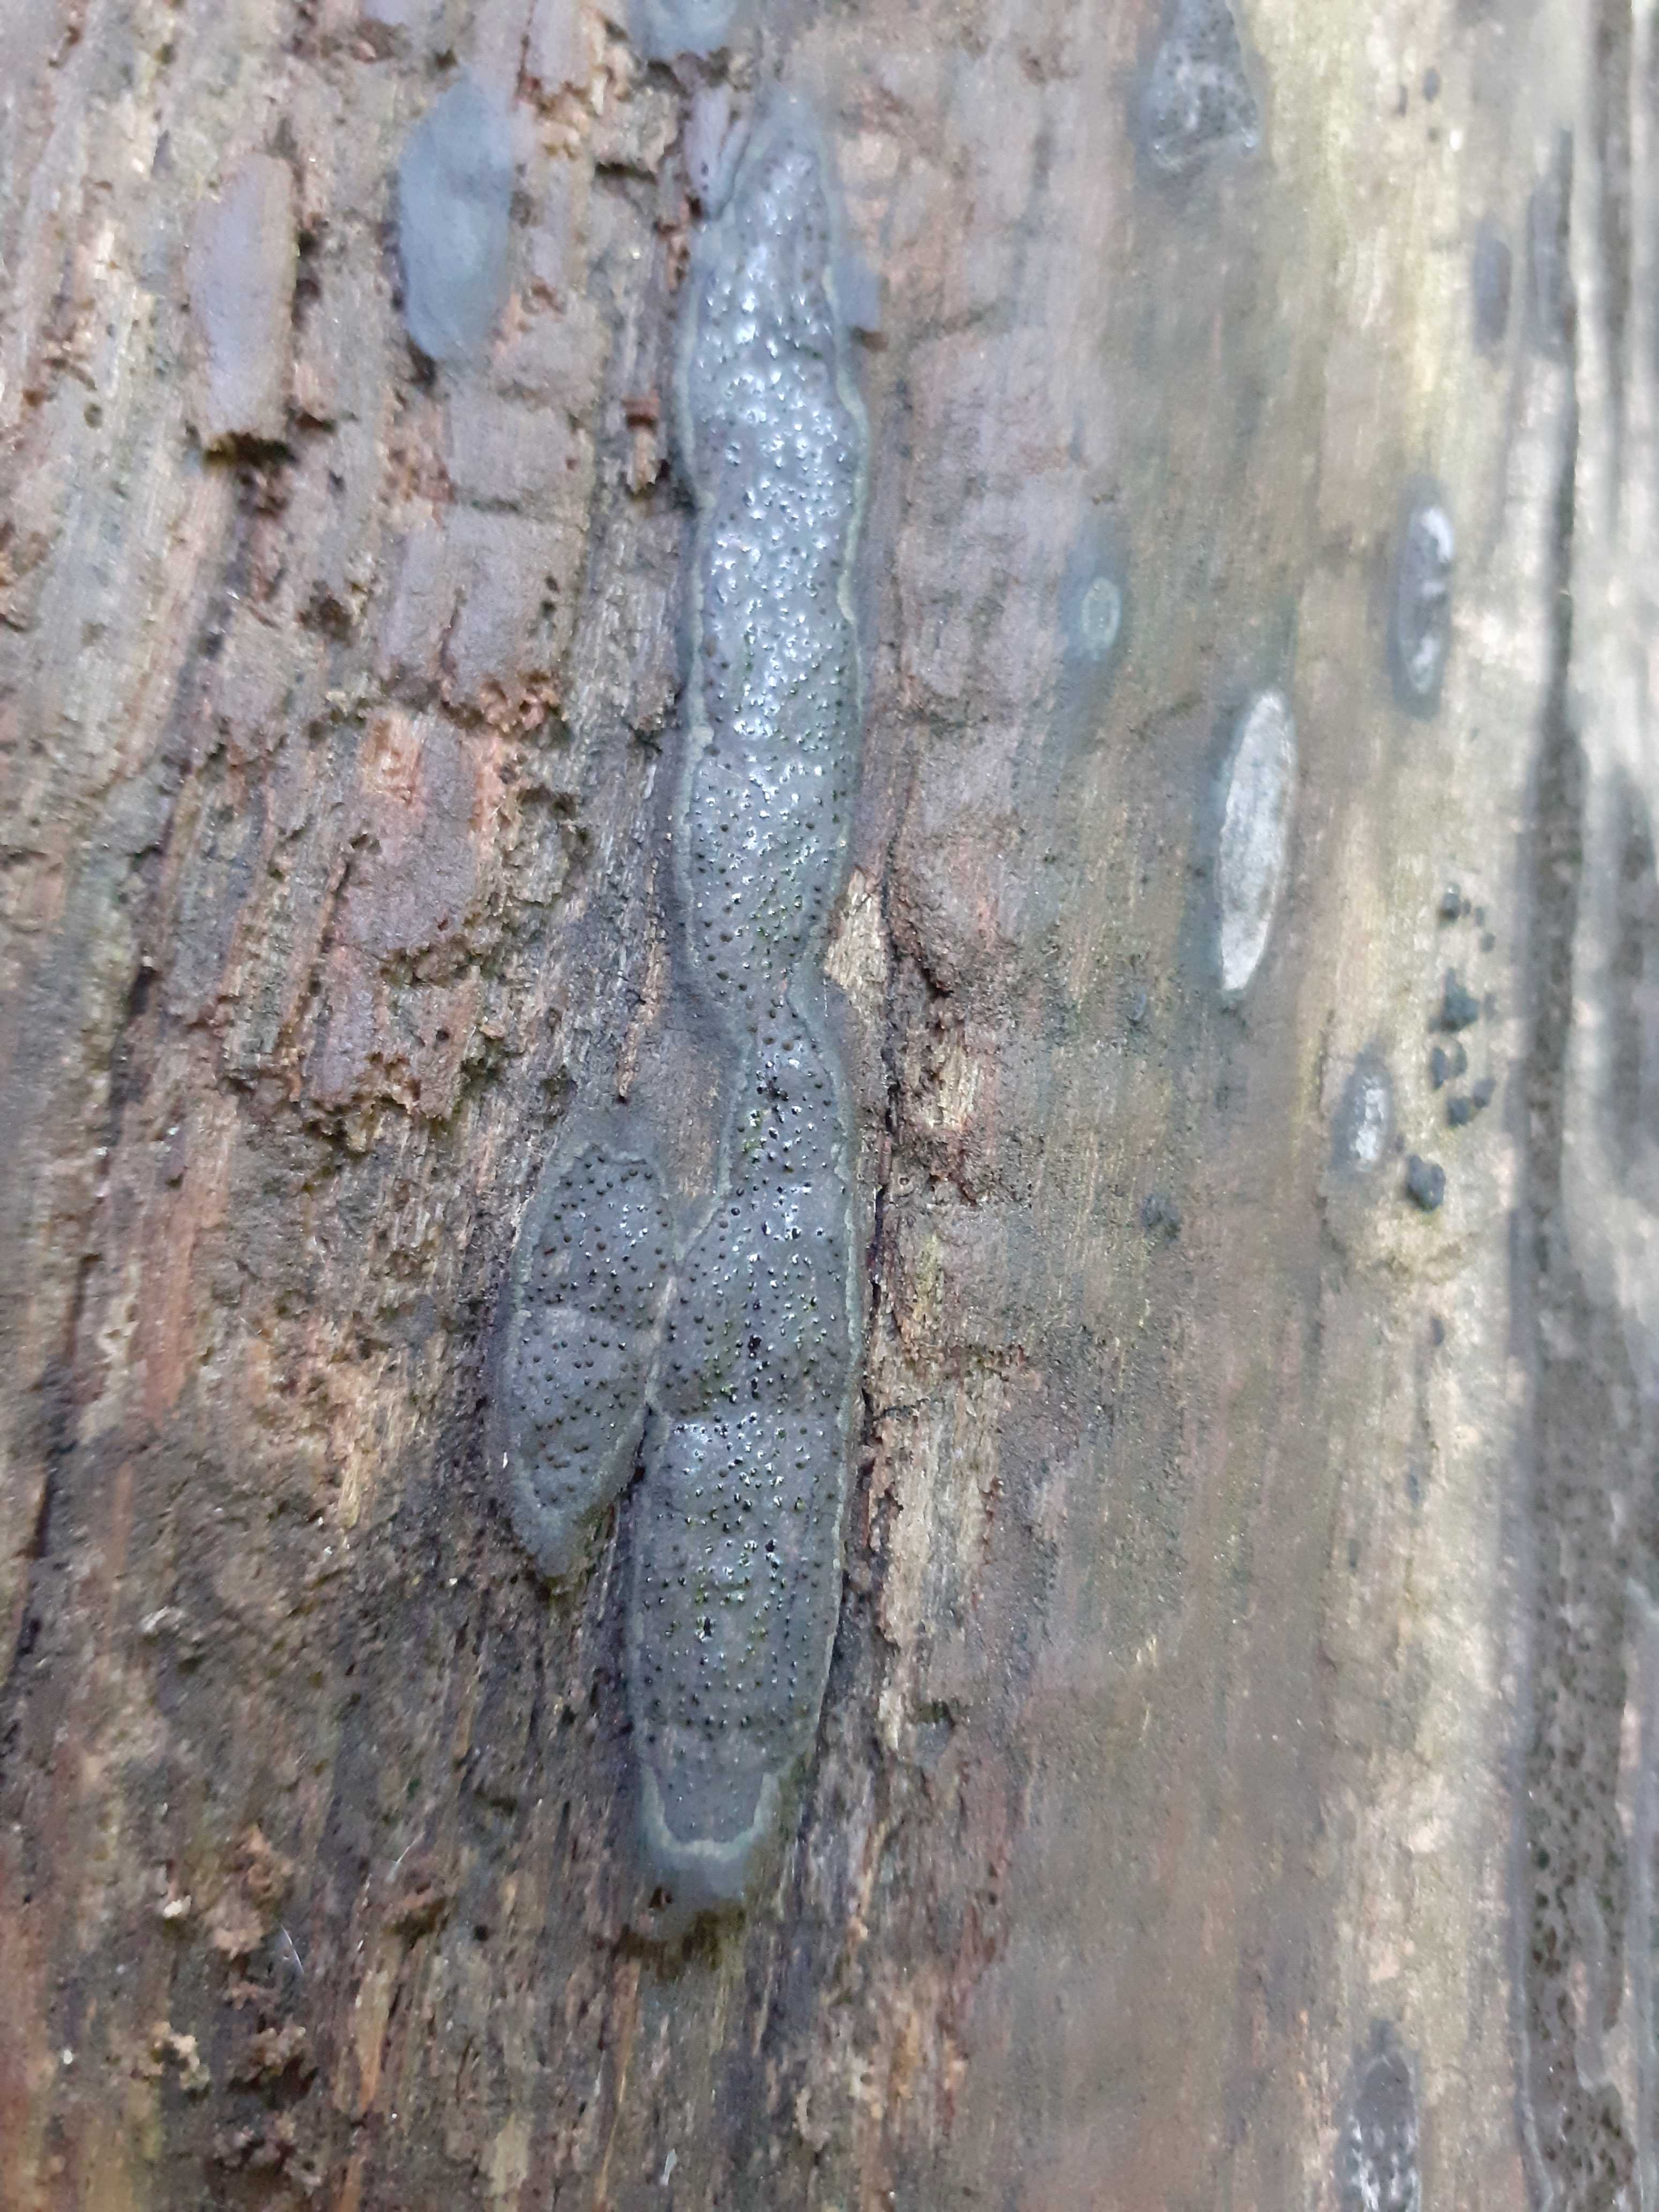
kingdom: Fungi
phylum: Ascomycota
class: Sordariomycetes
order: Xylariales
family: Lopadostomataceae
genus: Lopadostoma
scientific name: Lopadostoma pouzarii
